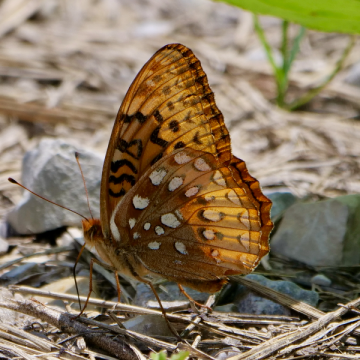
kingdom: Animalia
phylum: Arthropoda
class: Insecta
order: Lepidoptera
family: Nymphalidae
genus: Speyeria
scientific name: Speyeria cybele
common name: Great Spangled Fritillary
